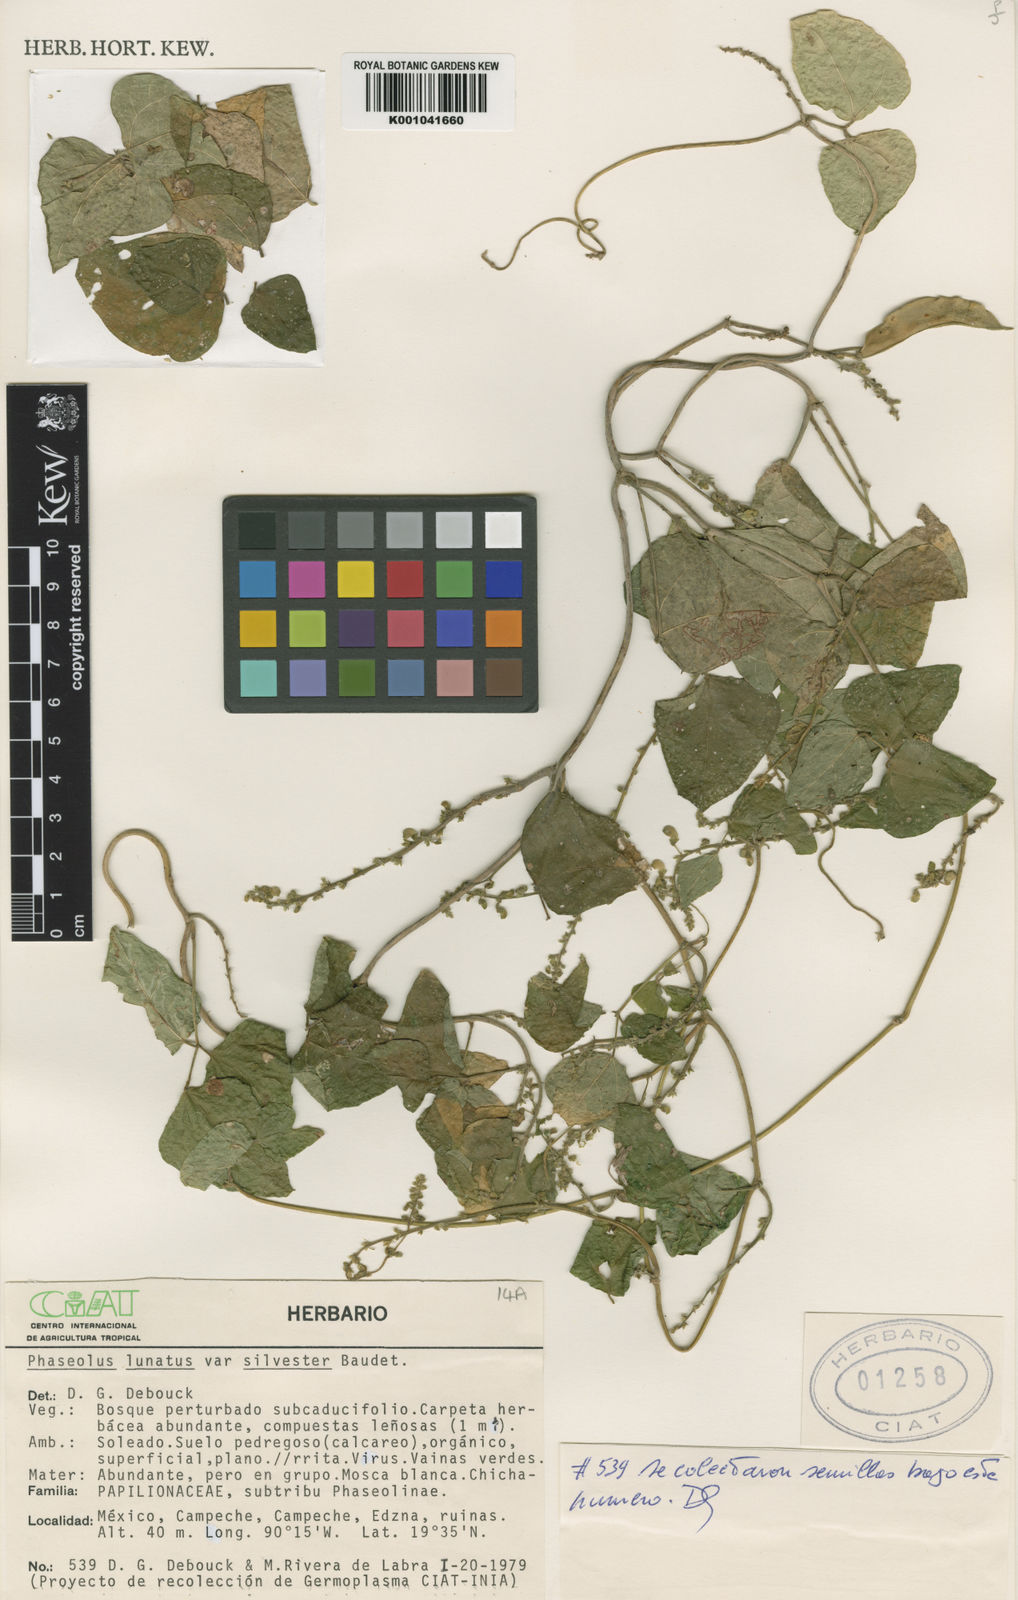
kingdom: Plantae
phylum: Tracheophyta
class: Magnoliopsida
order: Fabales
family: Fabaceae
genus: Phaseolus
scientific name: Phaseolus lunatus
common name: Sieva bean
